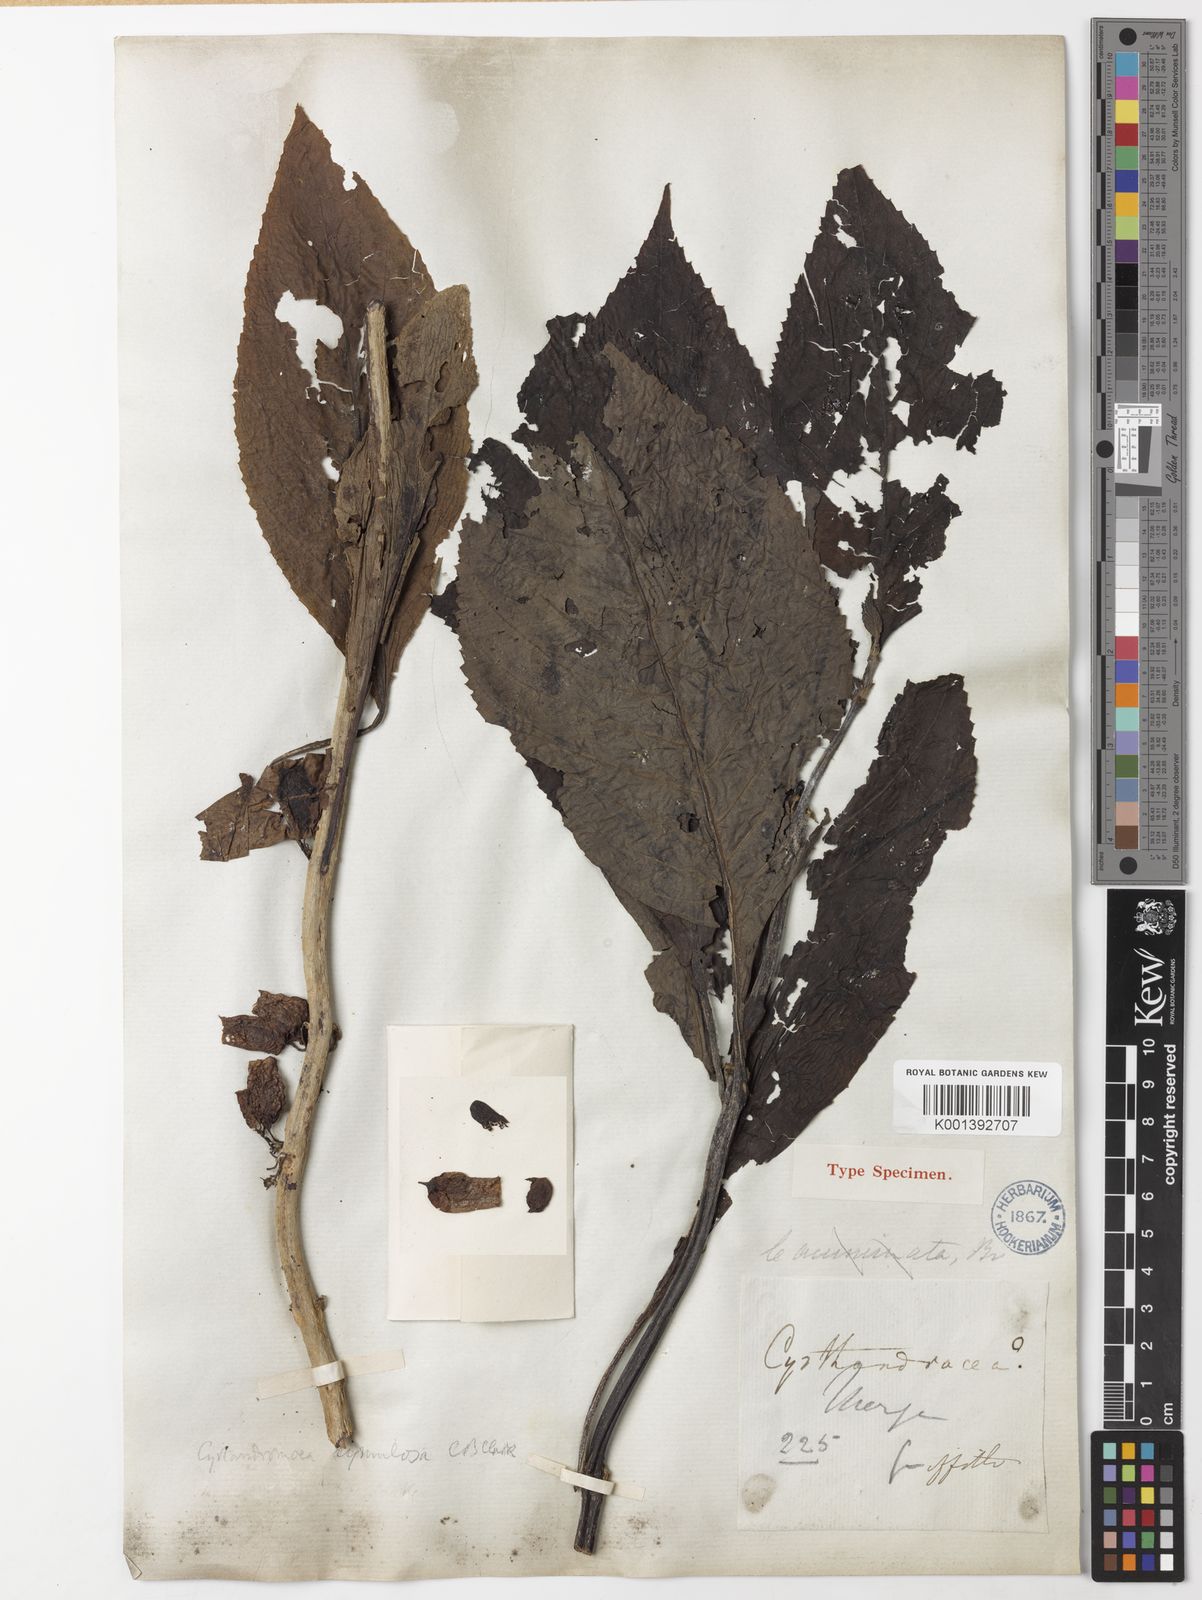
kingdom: Plantae
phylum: Tracheophyta
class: Magnoliopsida
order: Lamiales
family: Phrymaceae
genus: Cyrtandromoea
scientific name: Cyrtandromoea subsessilis
